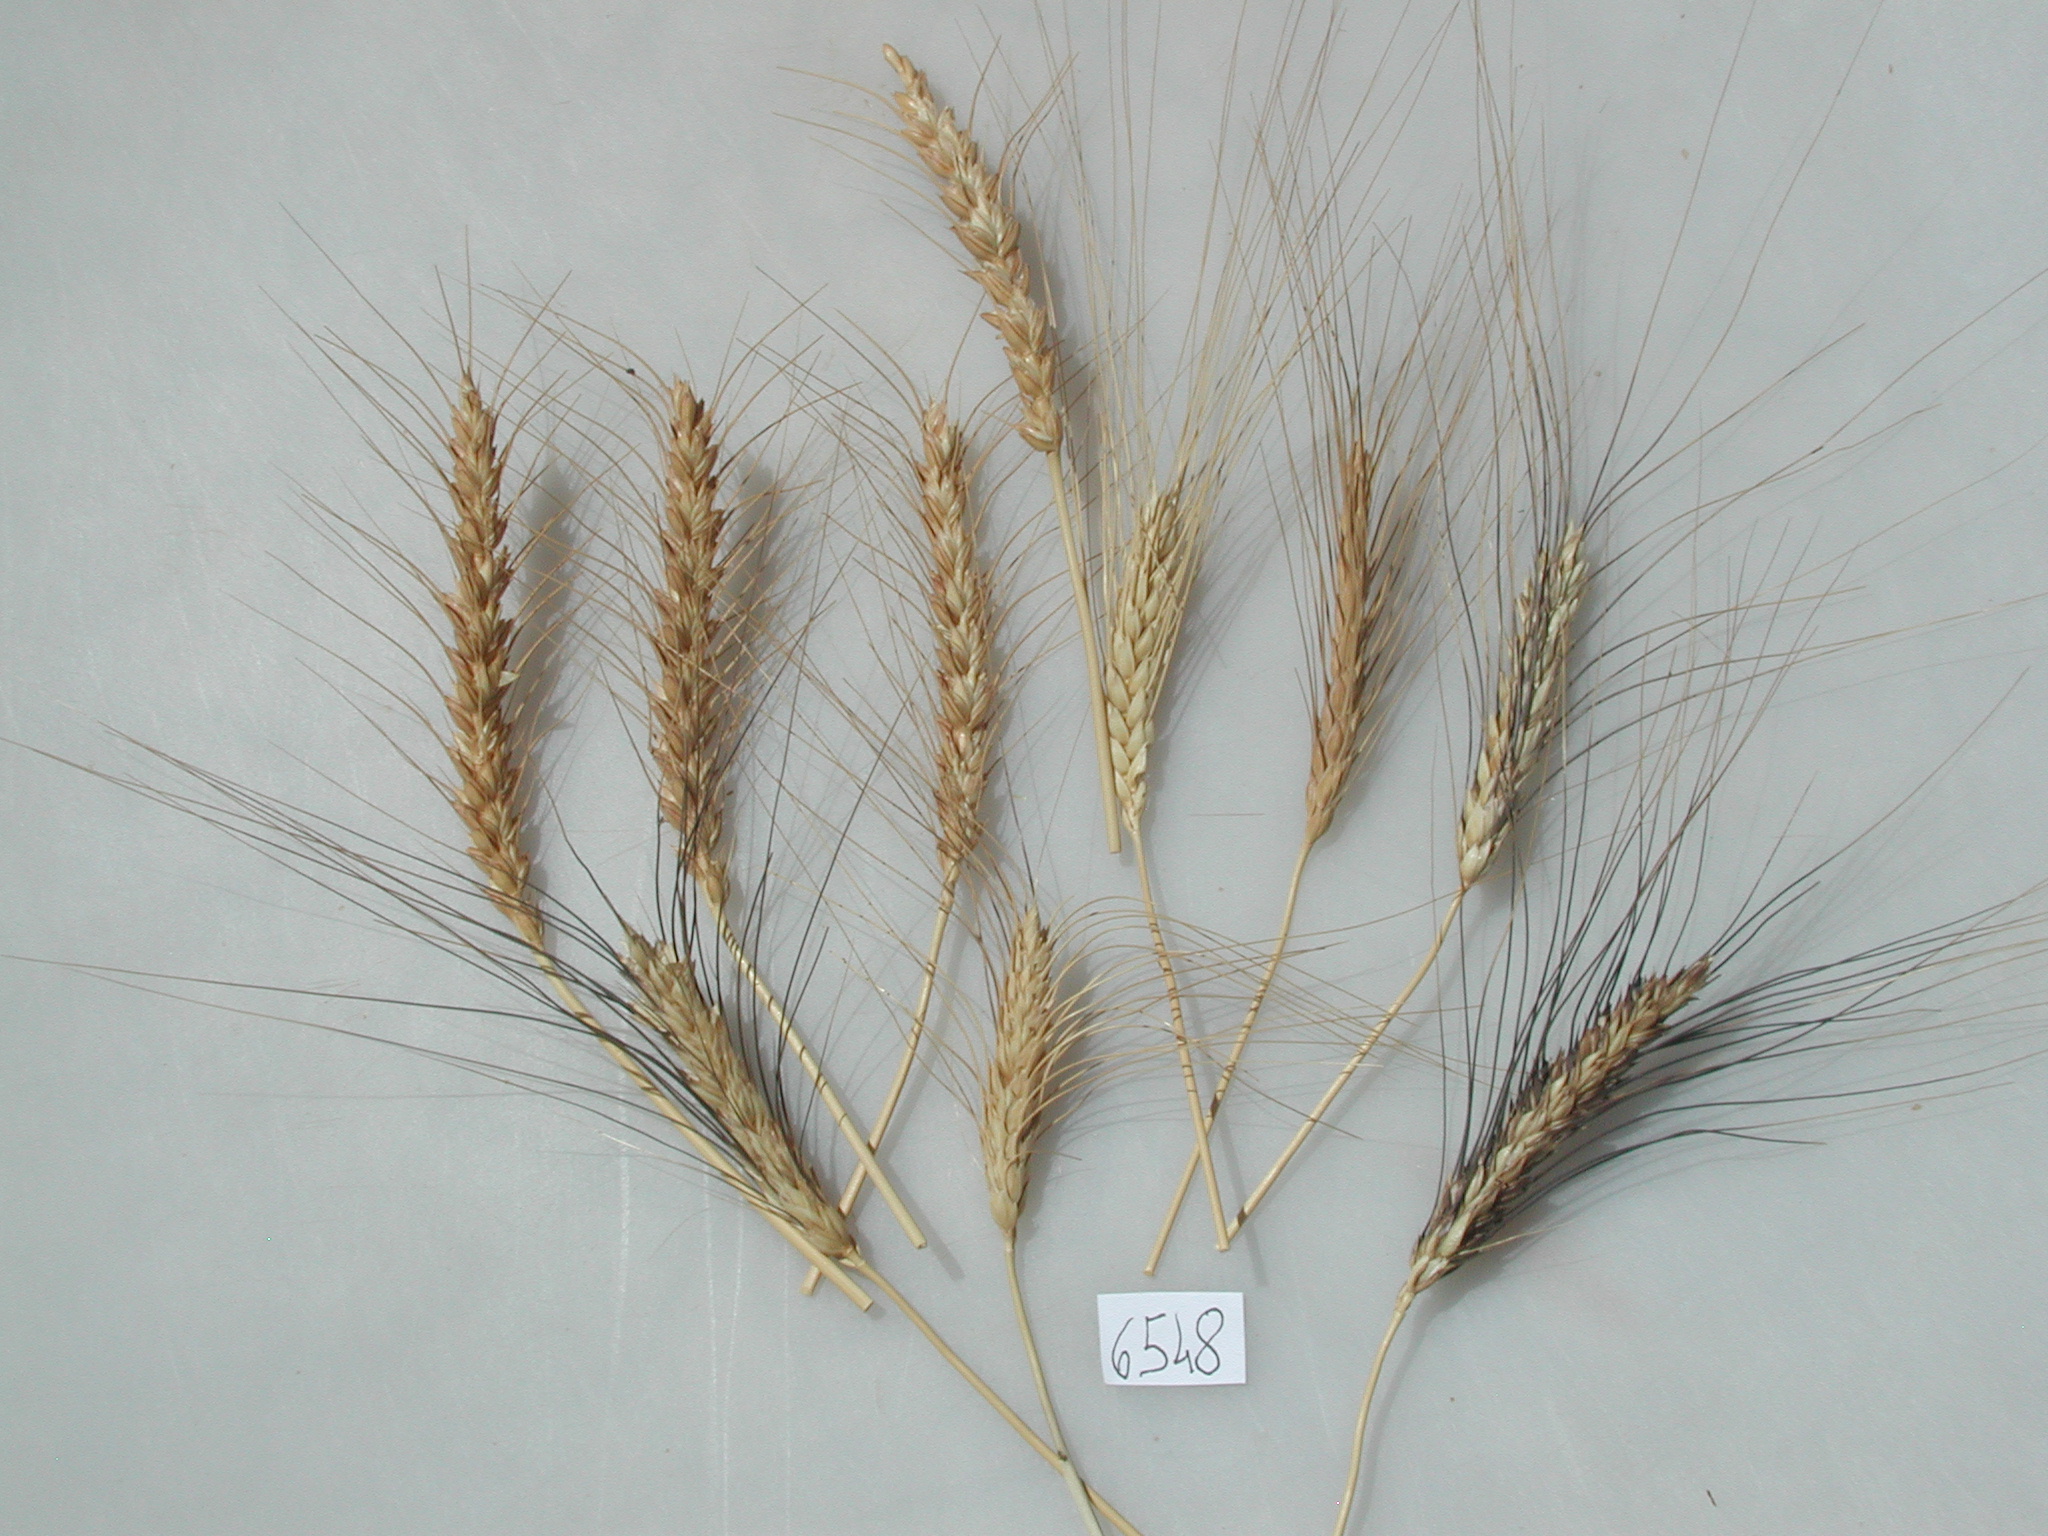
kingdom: Plantae
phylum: Tracheophyta
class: Liliopsida
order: Poales
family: Poaceae
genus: Triticum
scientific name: Triticum aestivum
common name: Wheat
